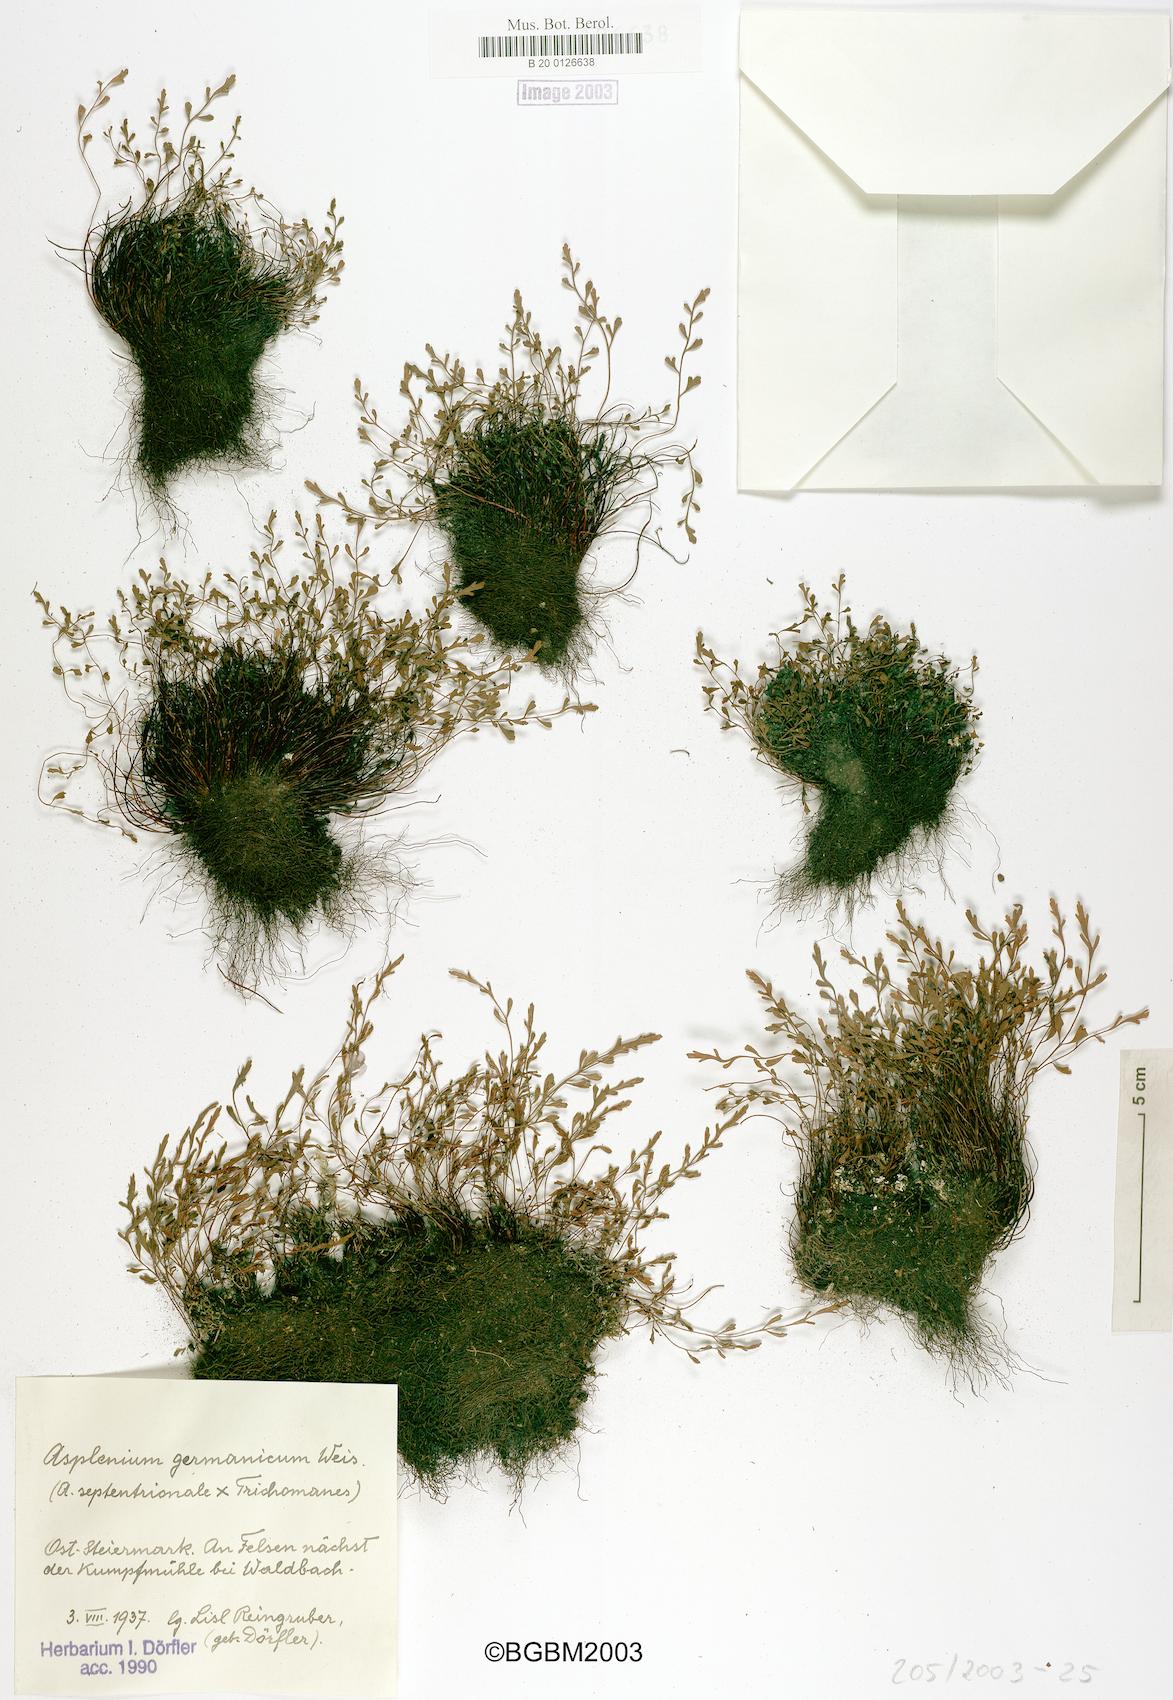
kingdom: Plantae
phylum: Tracheophyta
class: Polypodiopsida
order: Polypodiales
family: Aspleniaceae
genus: Asplenium
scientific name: Asplenium
